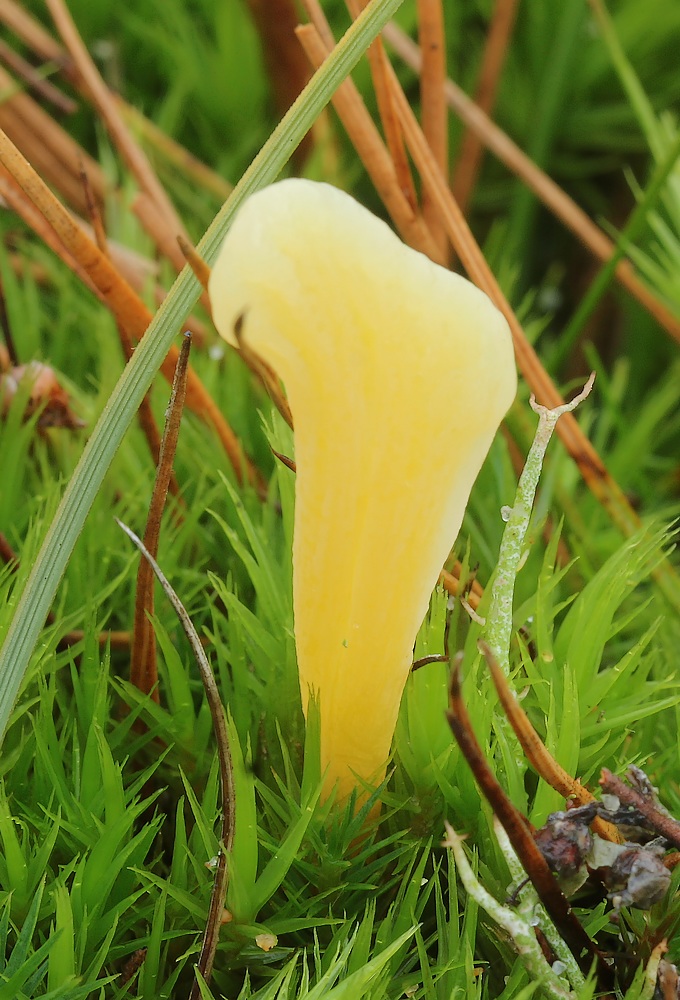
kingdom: Fungi
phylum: Basidiomycota
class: Agaricomycetes
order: Agaricales
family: Clavariaceae
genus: Clavaria
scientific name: Clavaria argillacea
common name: lerfarvet køllesvamp
